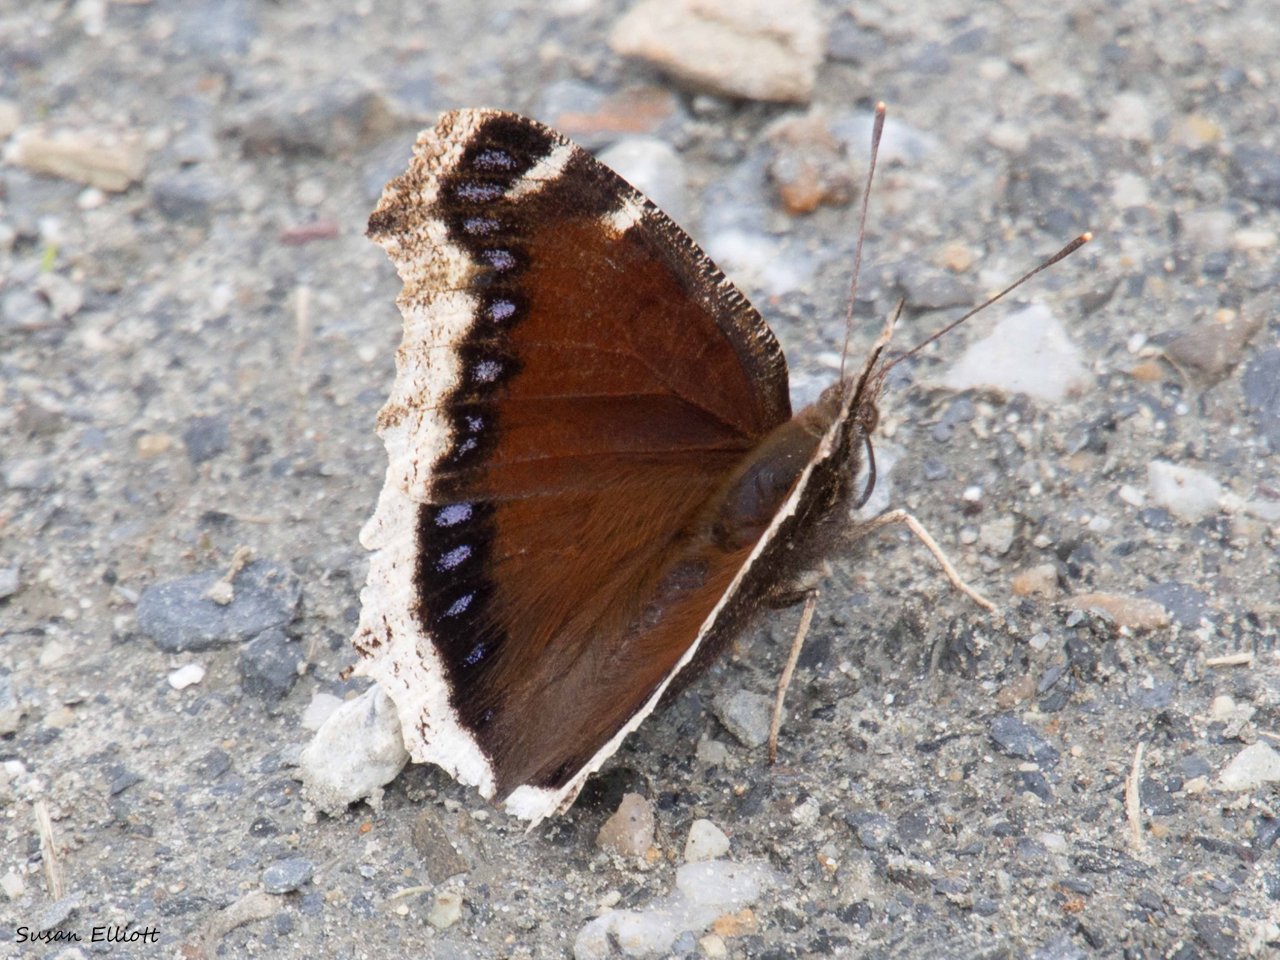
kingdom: Animalia
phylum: Arthropoda
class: Insecta
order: Lepidoptera
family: Nymphalidae
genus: Nymphalis
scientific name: Nymphalis antiopa
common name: Mourning Cloak
